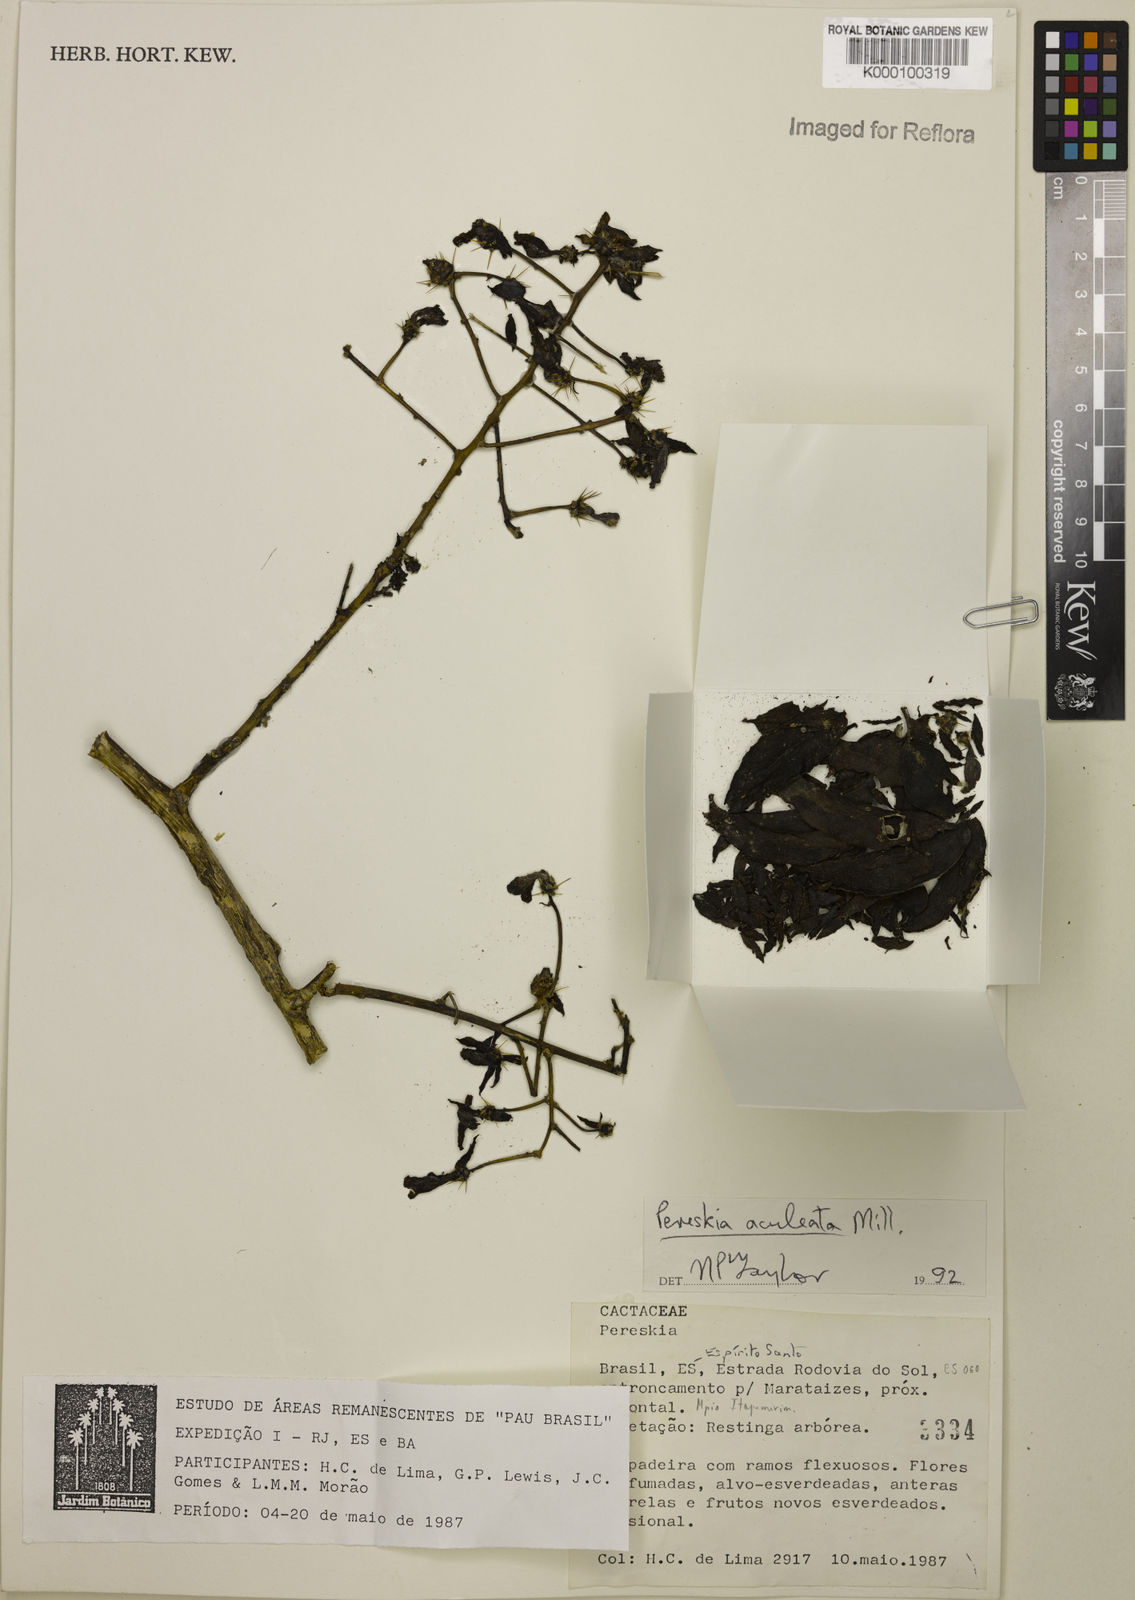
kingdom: Plantae
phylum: Tracheophyta
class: Magnoliopsida
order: Caryophyllales
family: Cactaceae
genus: Pereskia
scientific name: Pereskia aculeata
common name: Barbados gooseberry
